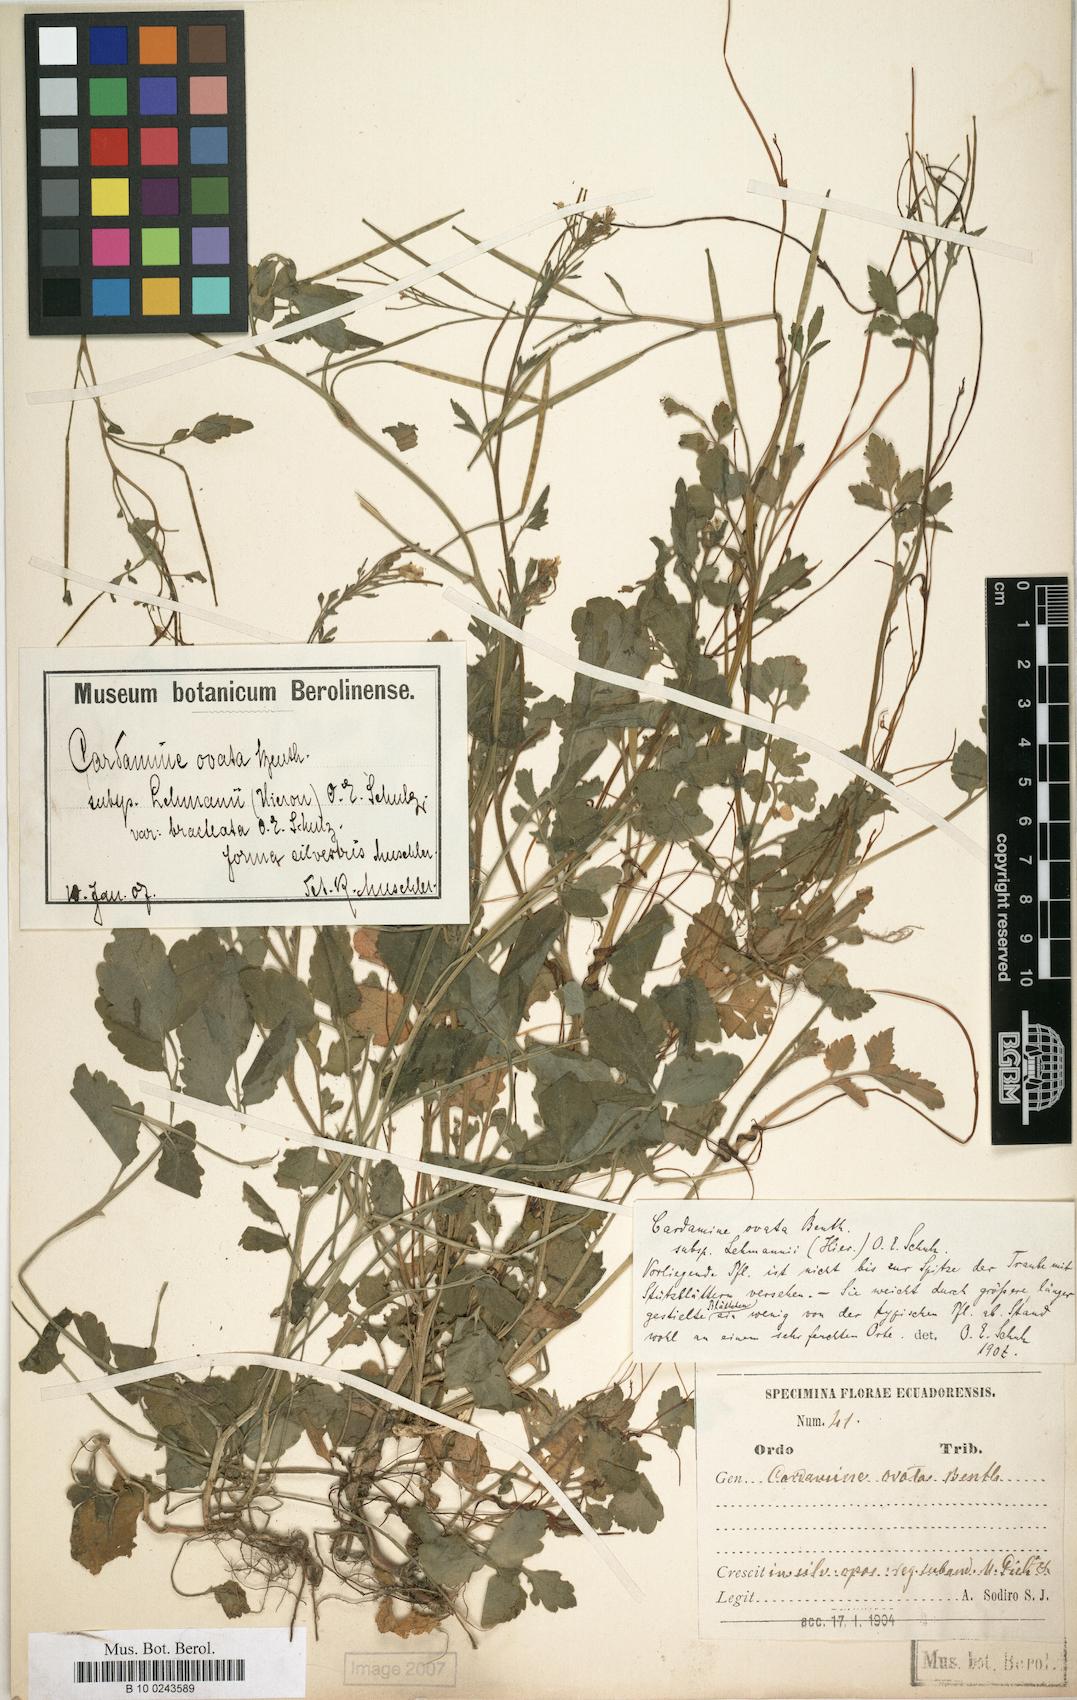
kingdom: Plantae
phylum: Tracheophyta
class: Magnoliopsida
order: Brassicales
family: Brassicaceae
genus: Cardamine
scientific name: Cardamine ovata
